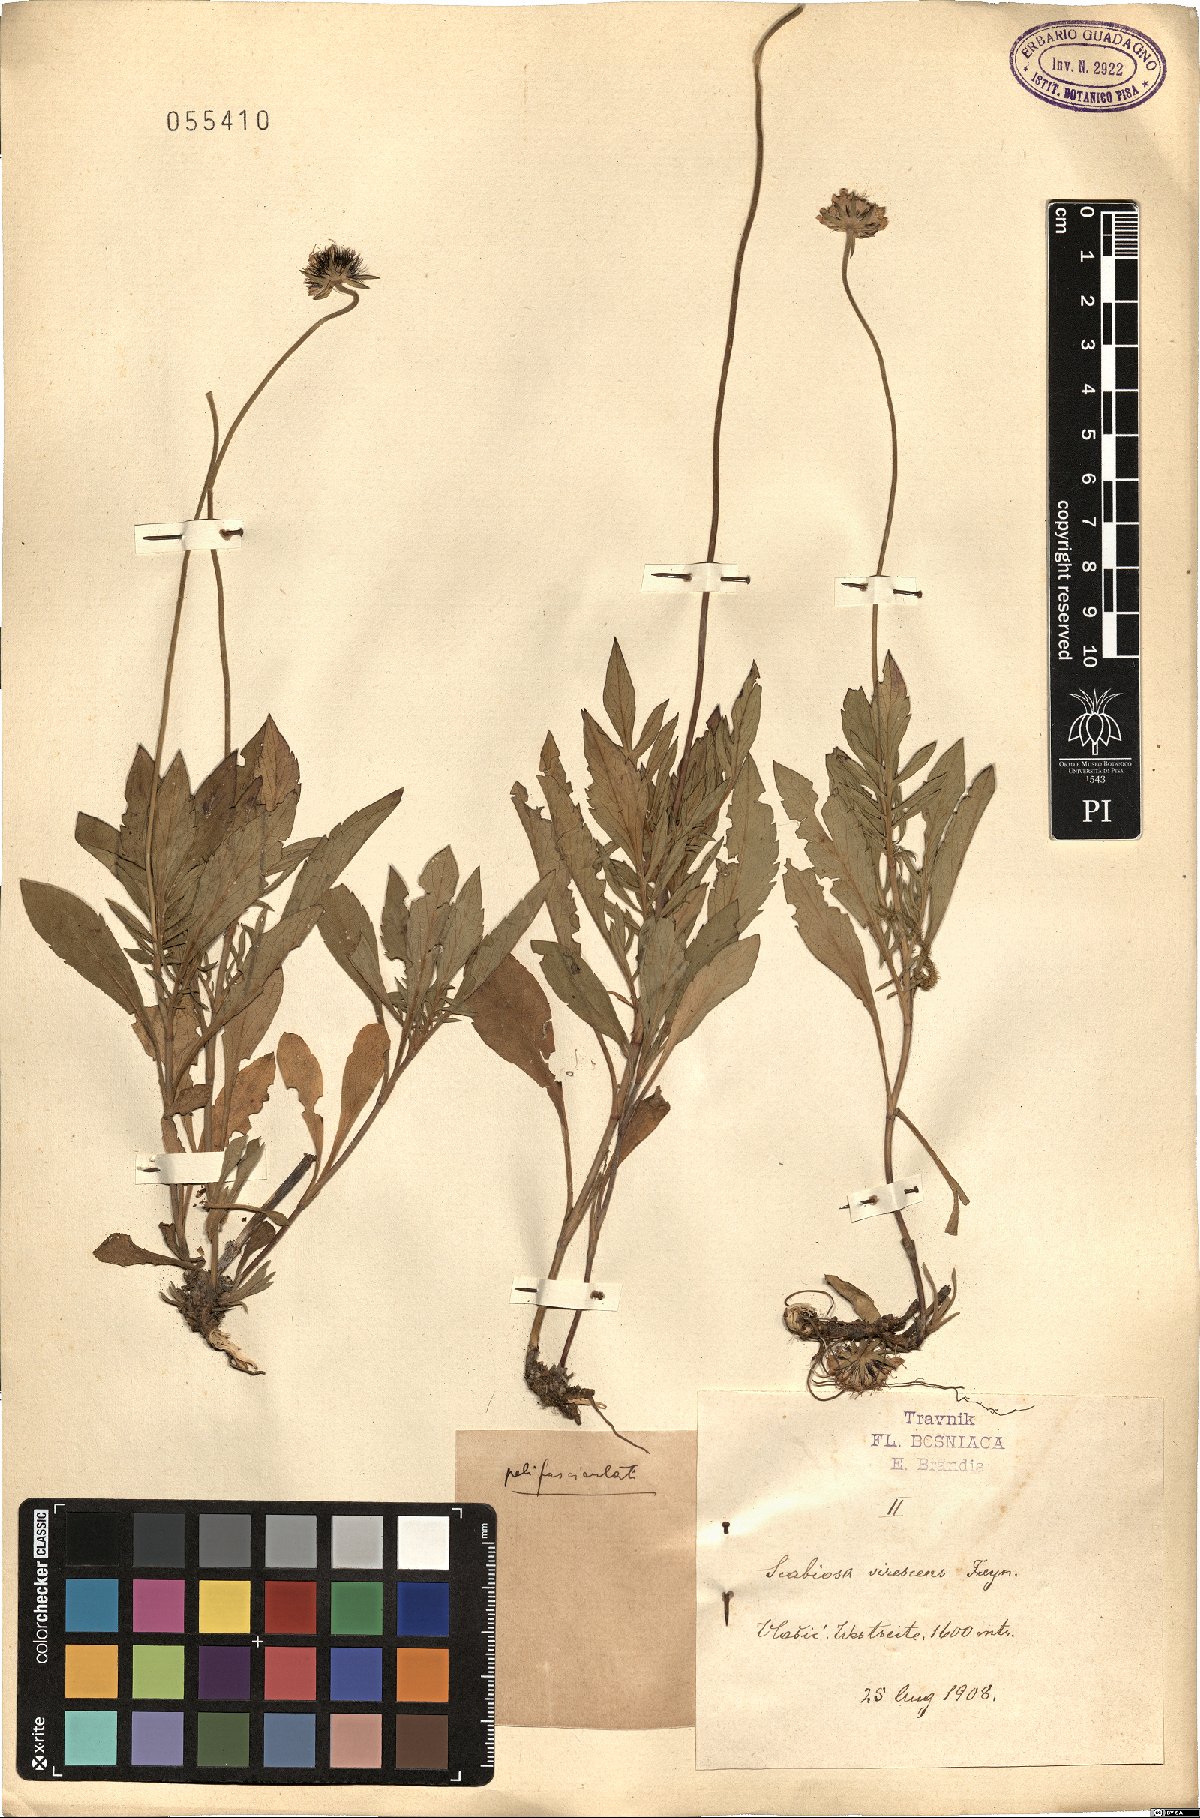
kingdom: Plantae
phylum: Tracheophyta
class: Magnoliopsida
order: Dipsacales
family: Caprifoliaceae
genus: Lomelosia
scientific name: Lomelosia graminifolia
